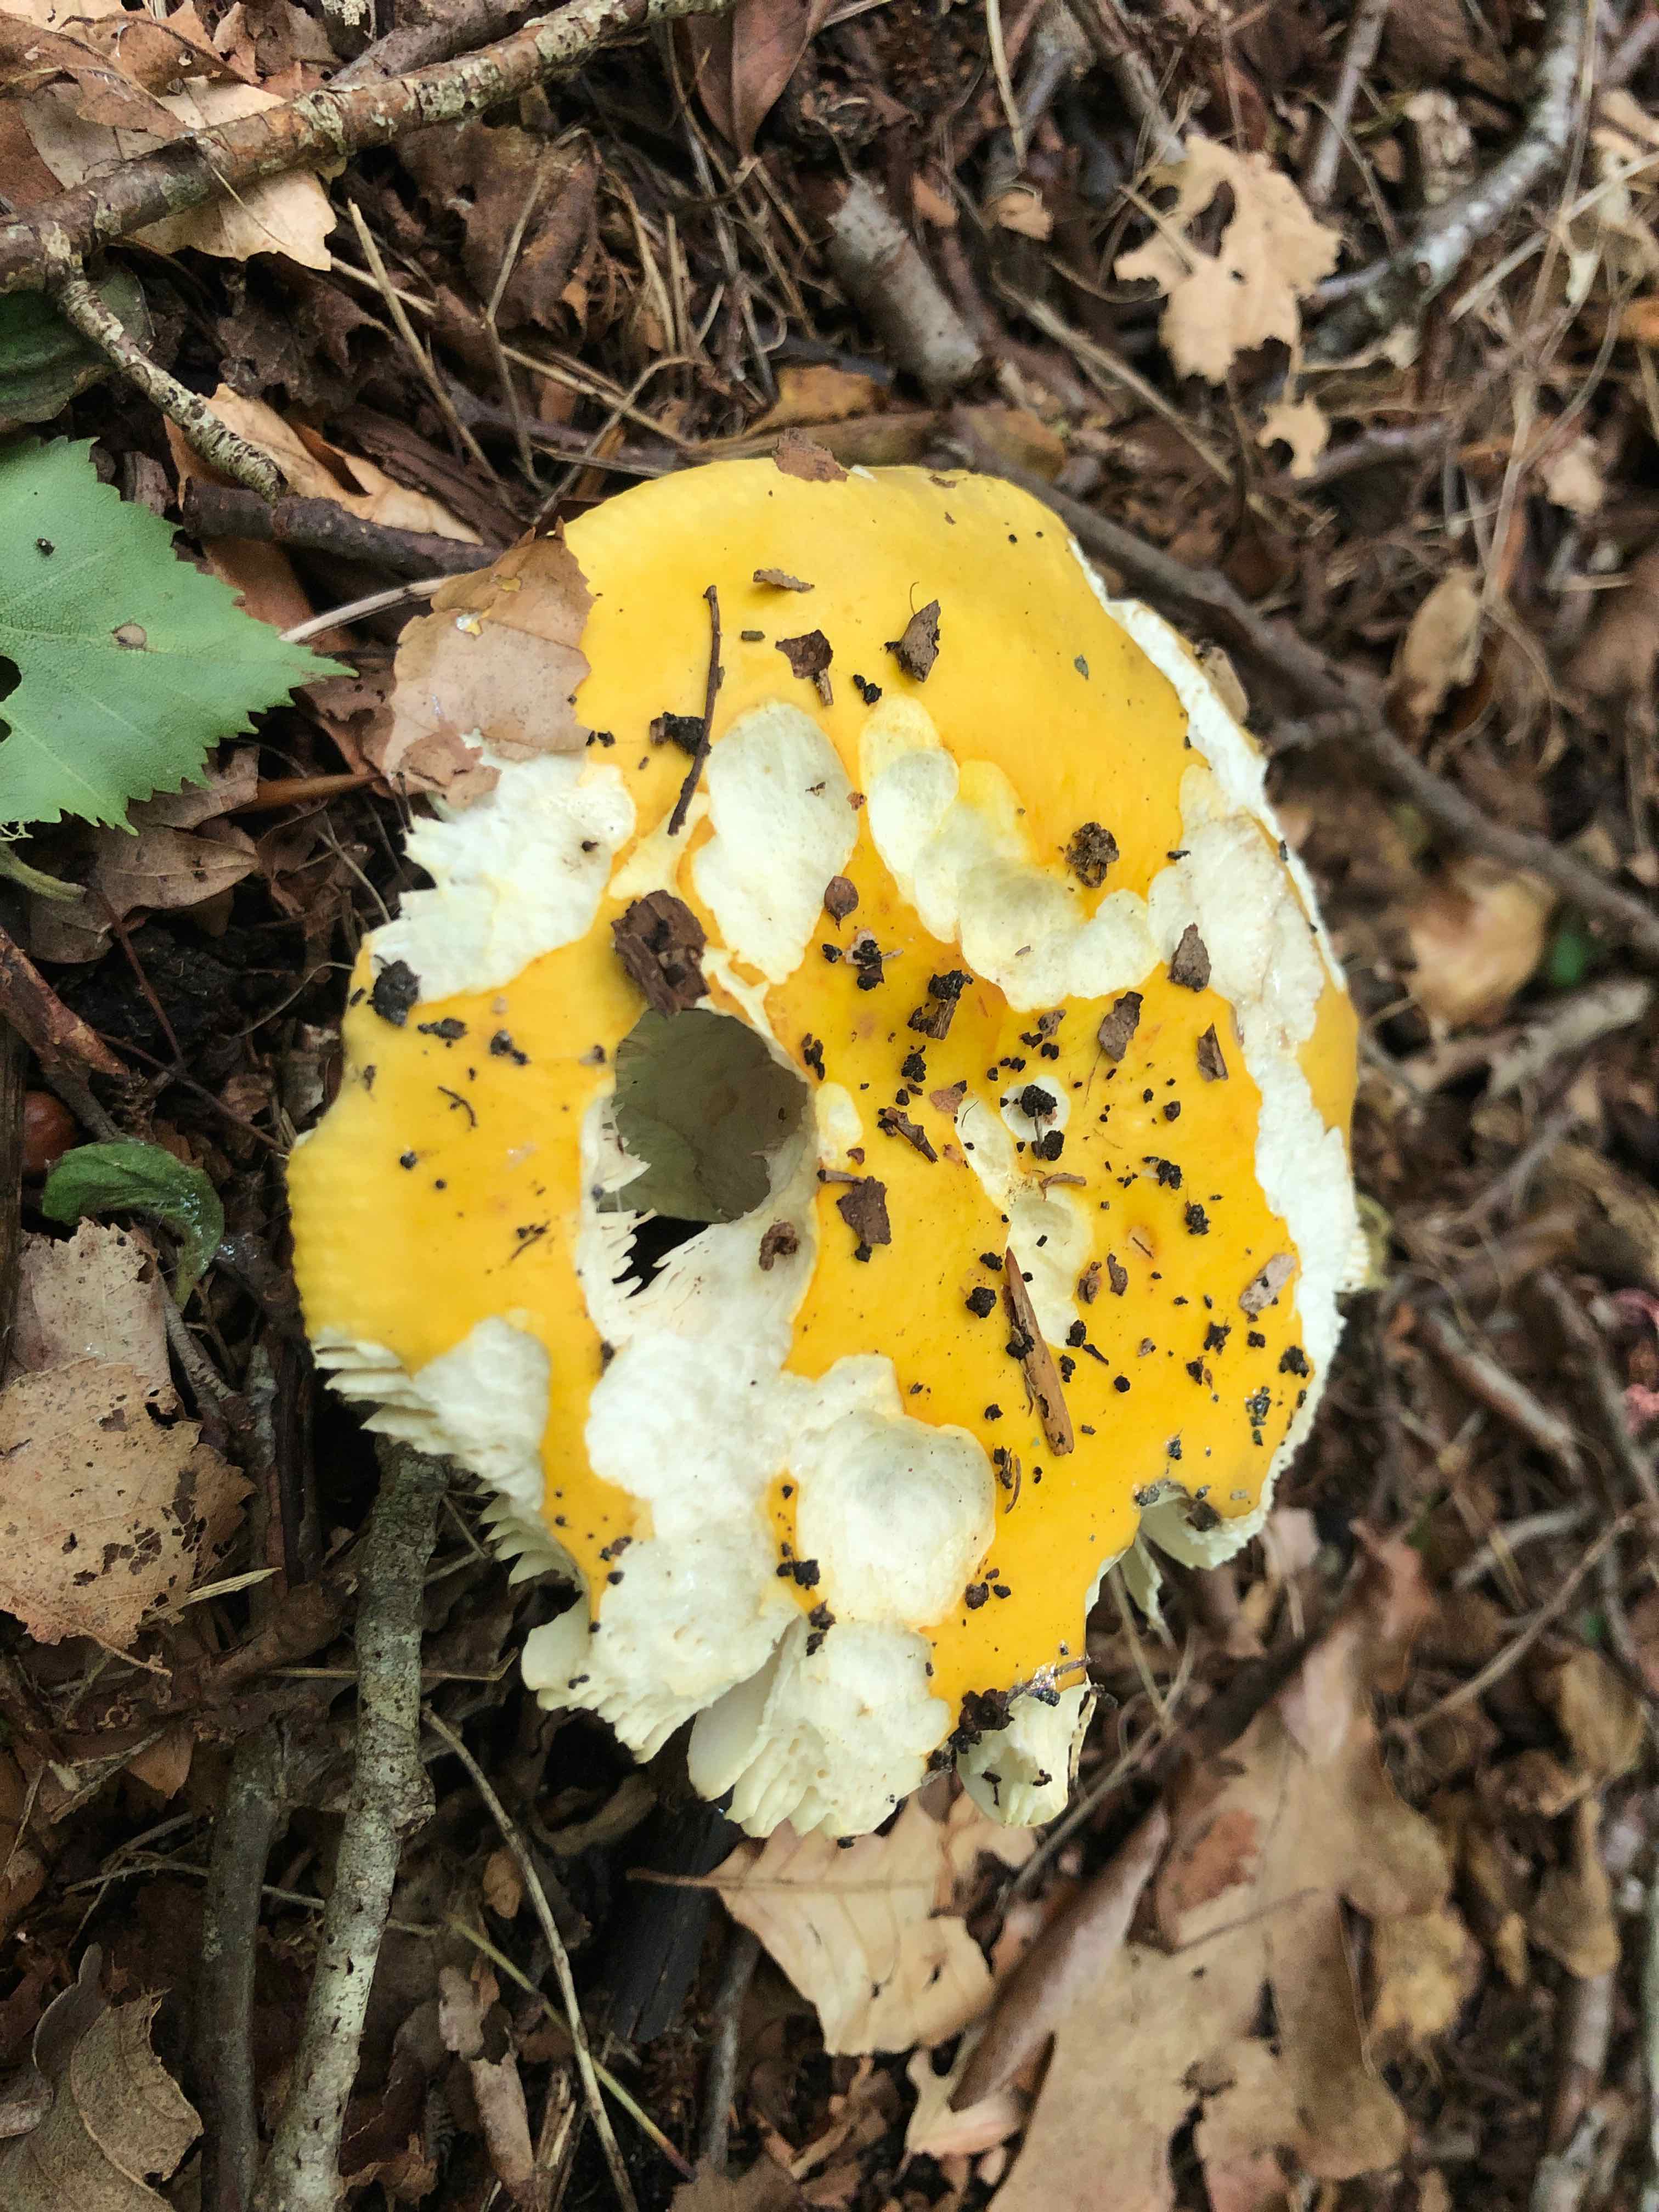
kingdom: Fungi
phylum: Basidiomycota
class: Agaricomycetes
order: Russulales
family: Russulaceae
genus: Russula
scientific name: Russula claroflava
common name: birke-skørhat
